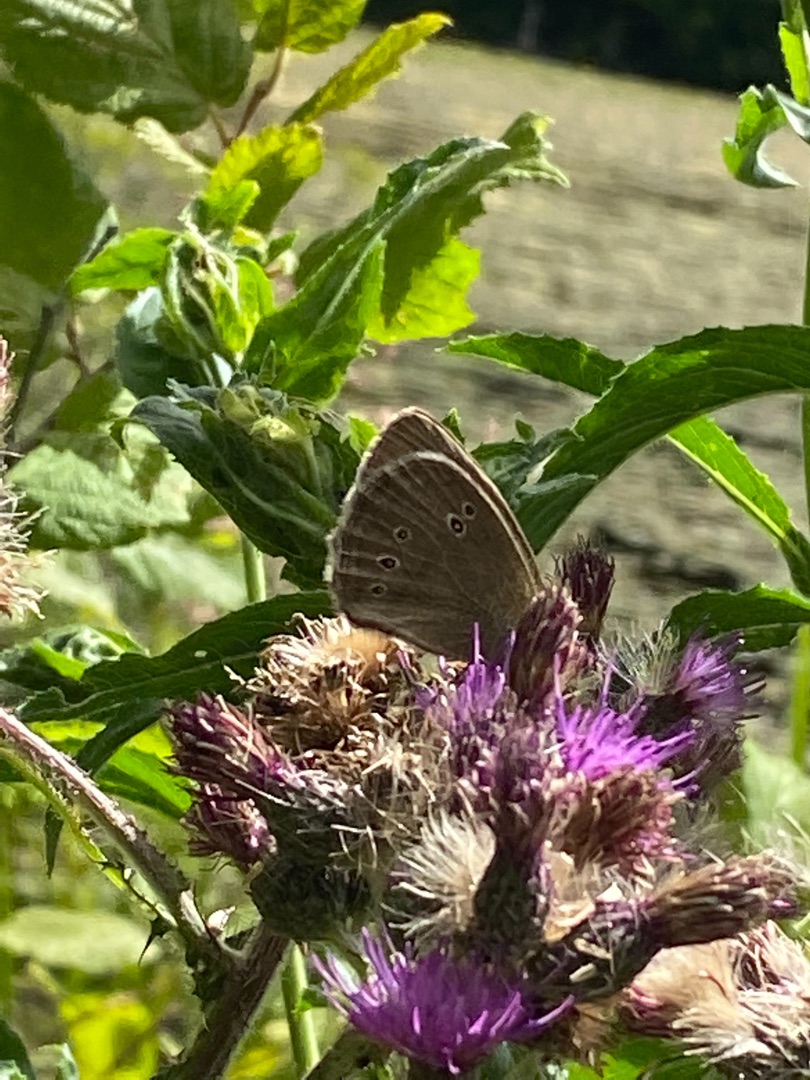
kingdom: Animalia
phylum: Arthropoda
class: Insecta
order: Lepidoptera
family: Nymphalidae
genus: Aphantopus
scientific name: Aphantopus hyperantus
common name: Engrandøje
